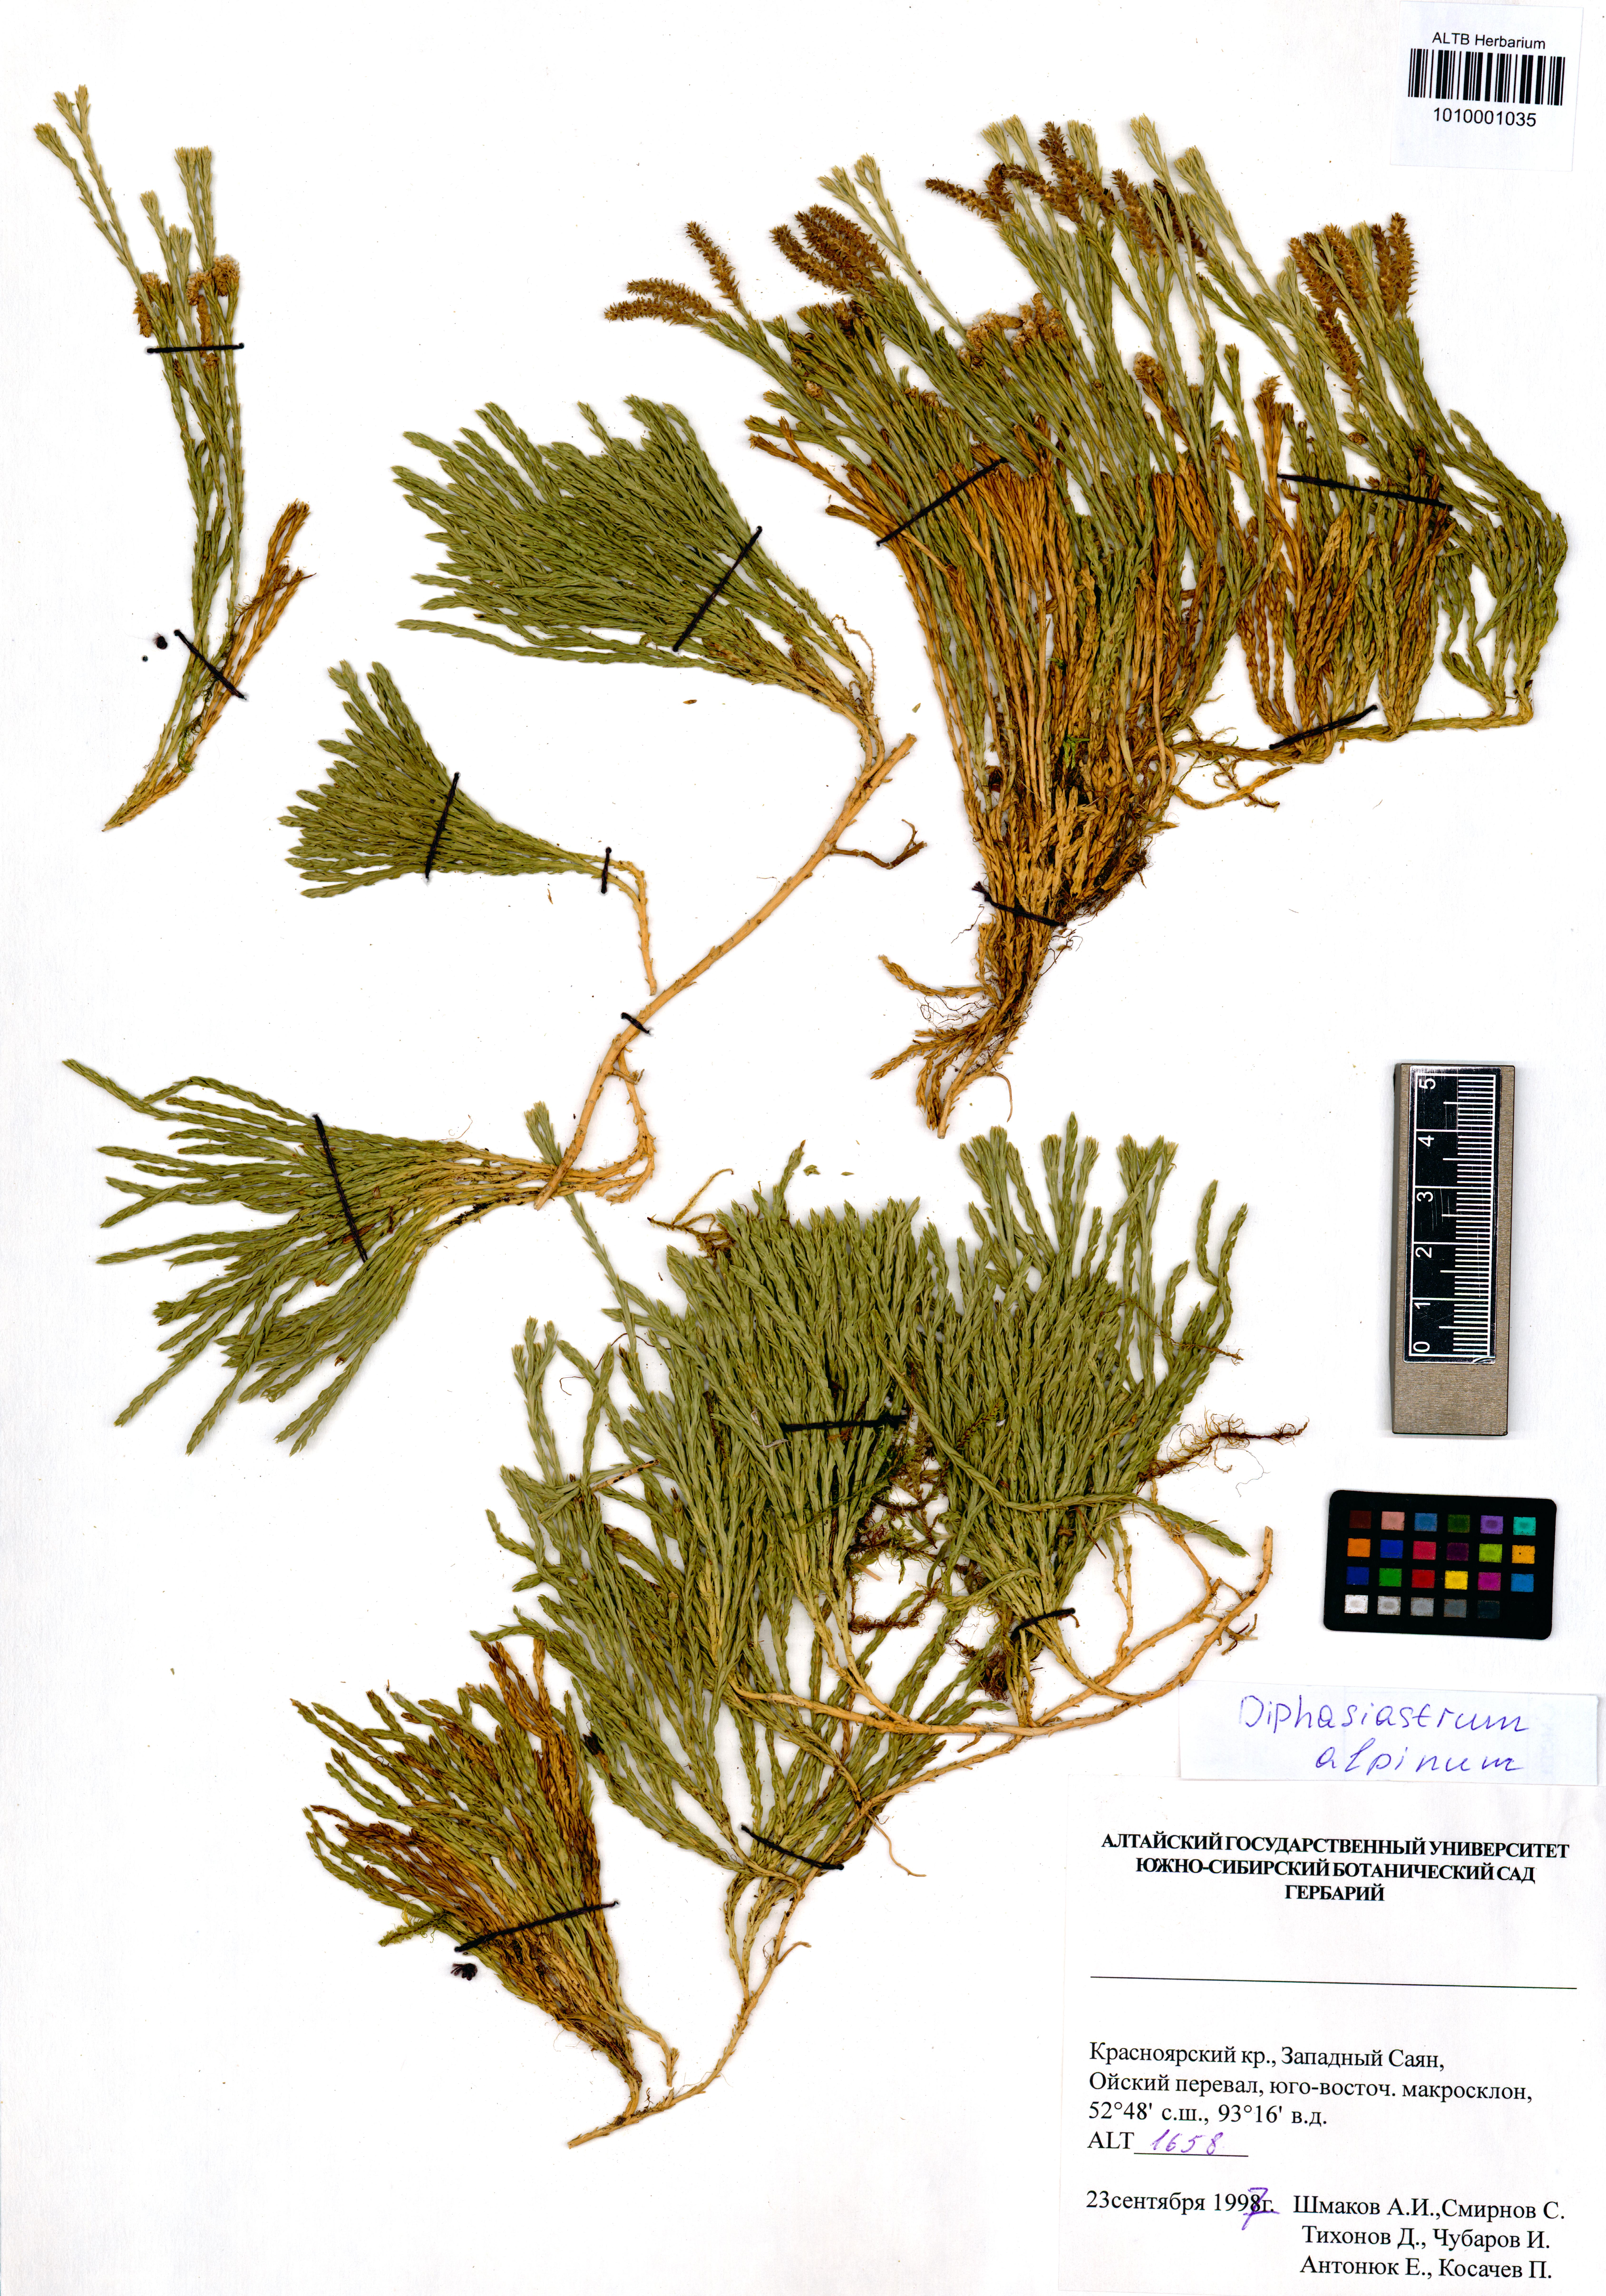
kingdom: Plantae
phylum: Tracheophyta
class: Lycopodiopsida
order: Lycopodiales
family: Lycopodiaceae
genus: Diphasiastrum
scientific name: Diphasiastrum alpinum
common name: Alpine clubmoss
